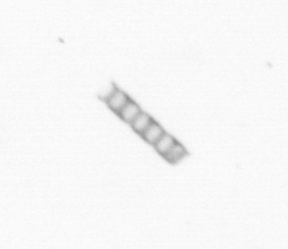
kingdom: Chromista
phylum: Ochrophyta
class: Bacillariophyceae
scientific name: Bacillariophyceae
